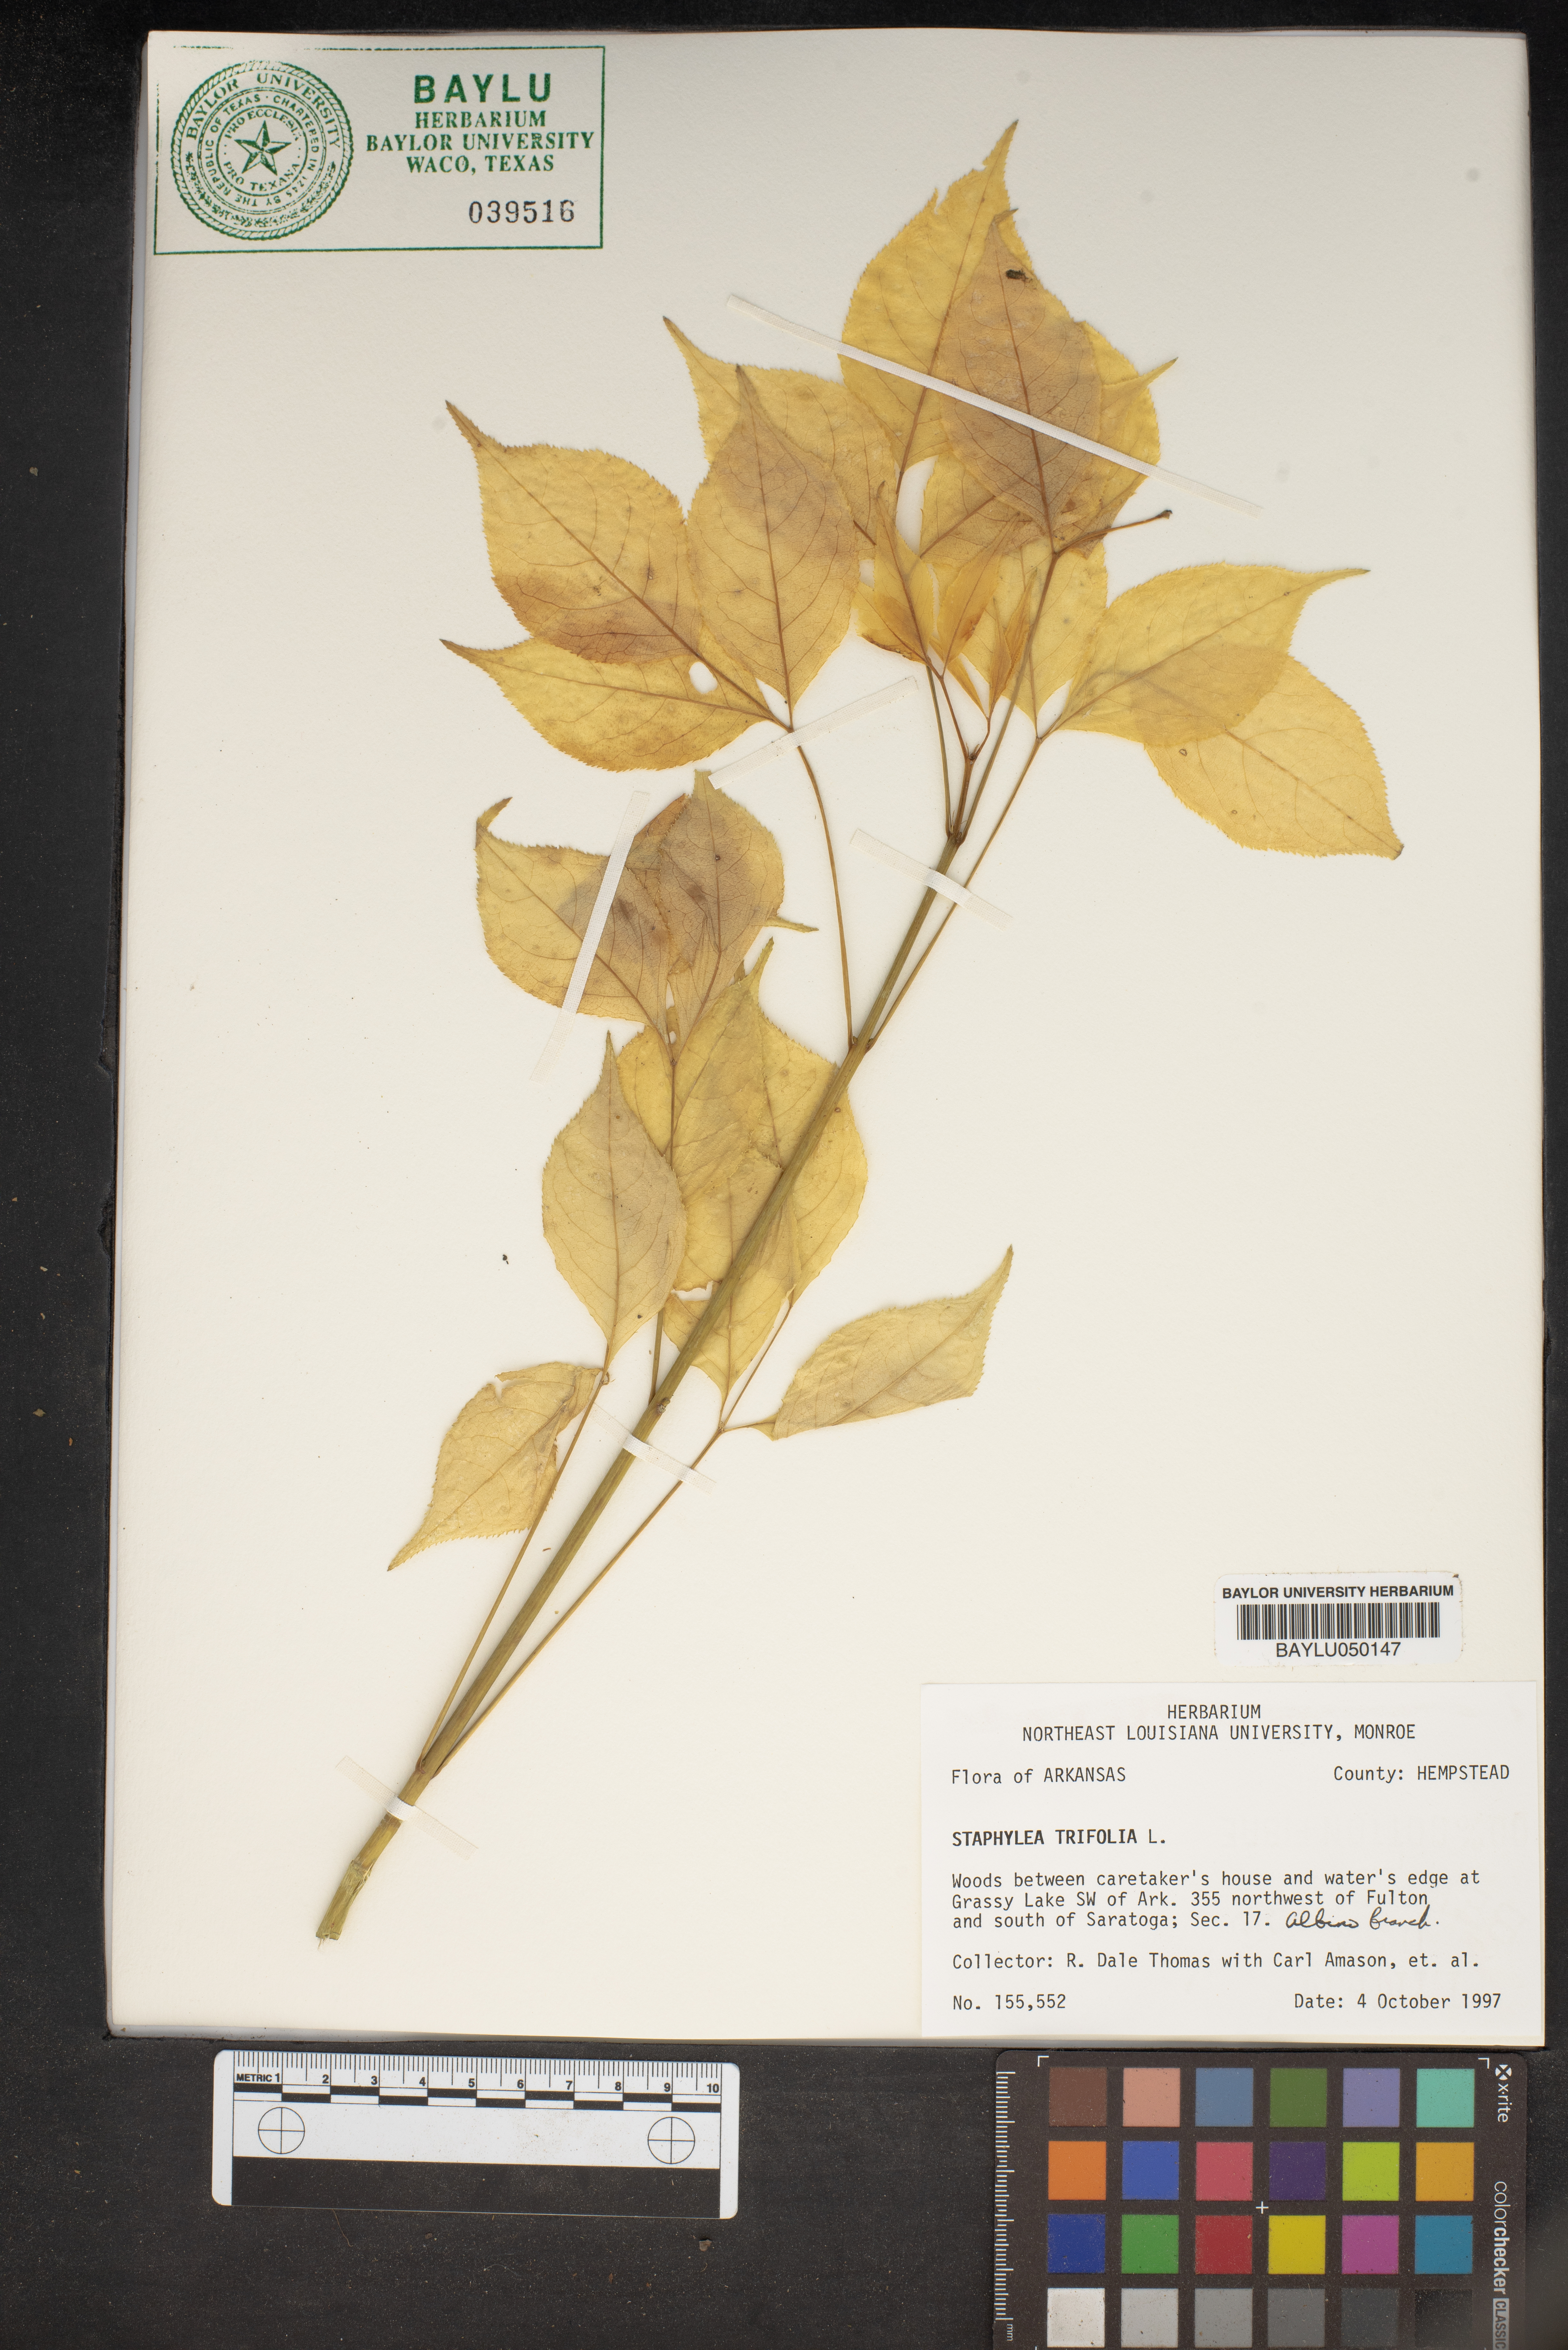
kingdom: Plantae
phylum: Tracheophyta
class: Magnoliopsida
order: Crossosomatales
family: Staphyleaceae
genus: Staphylea
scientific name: Staphylea trifolia
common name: American bladdernut
